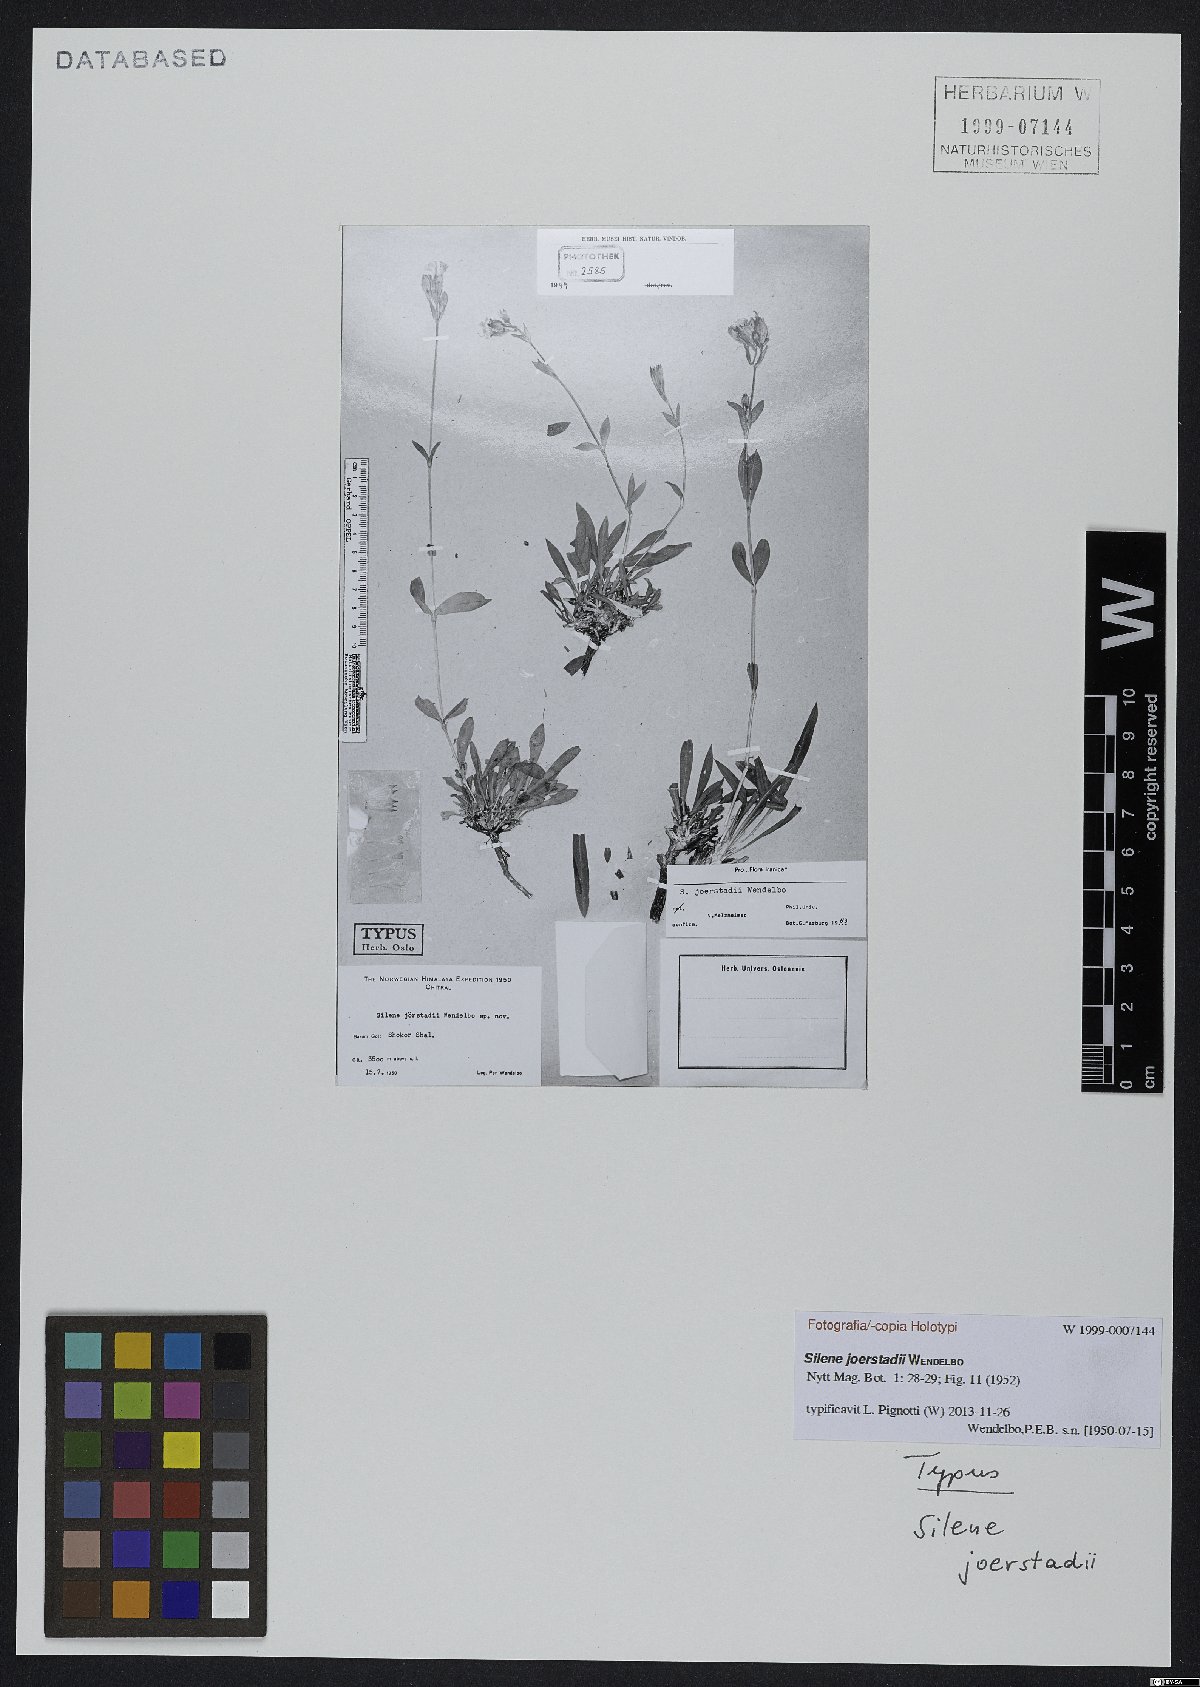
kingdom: Plantae
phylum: Tracheophyta
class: Magnoliopsida
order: Caryophyllales
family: Caryophyllaceae
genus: Silene
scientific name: Silene joerstadii
